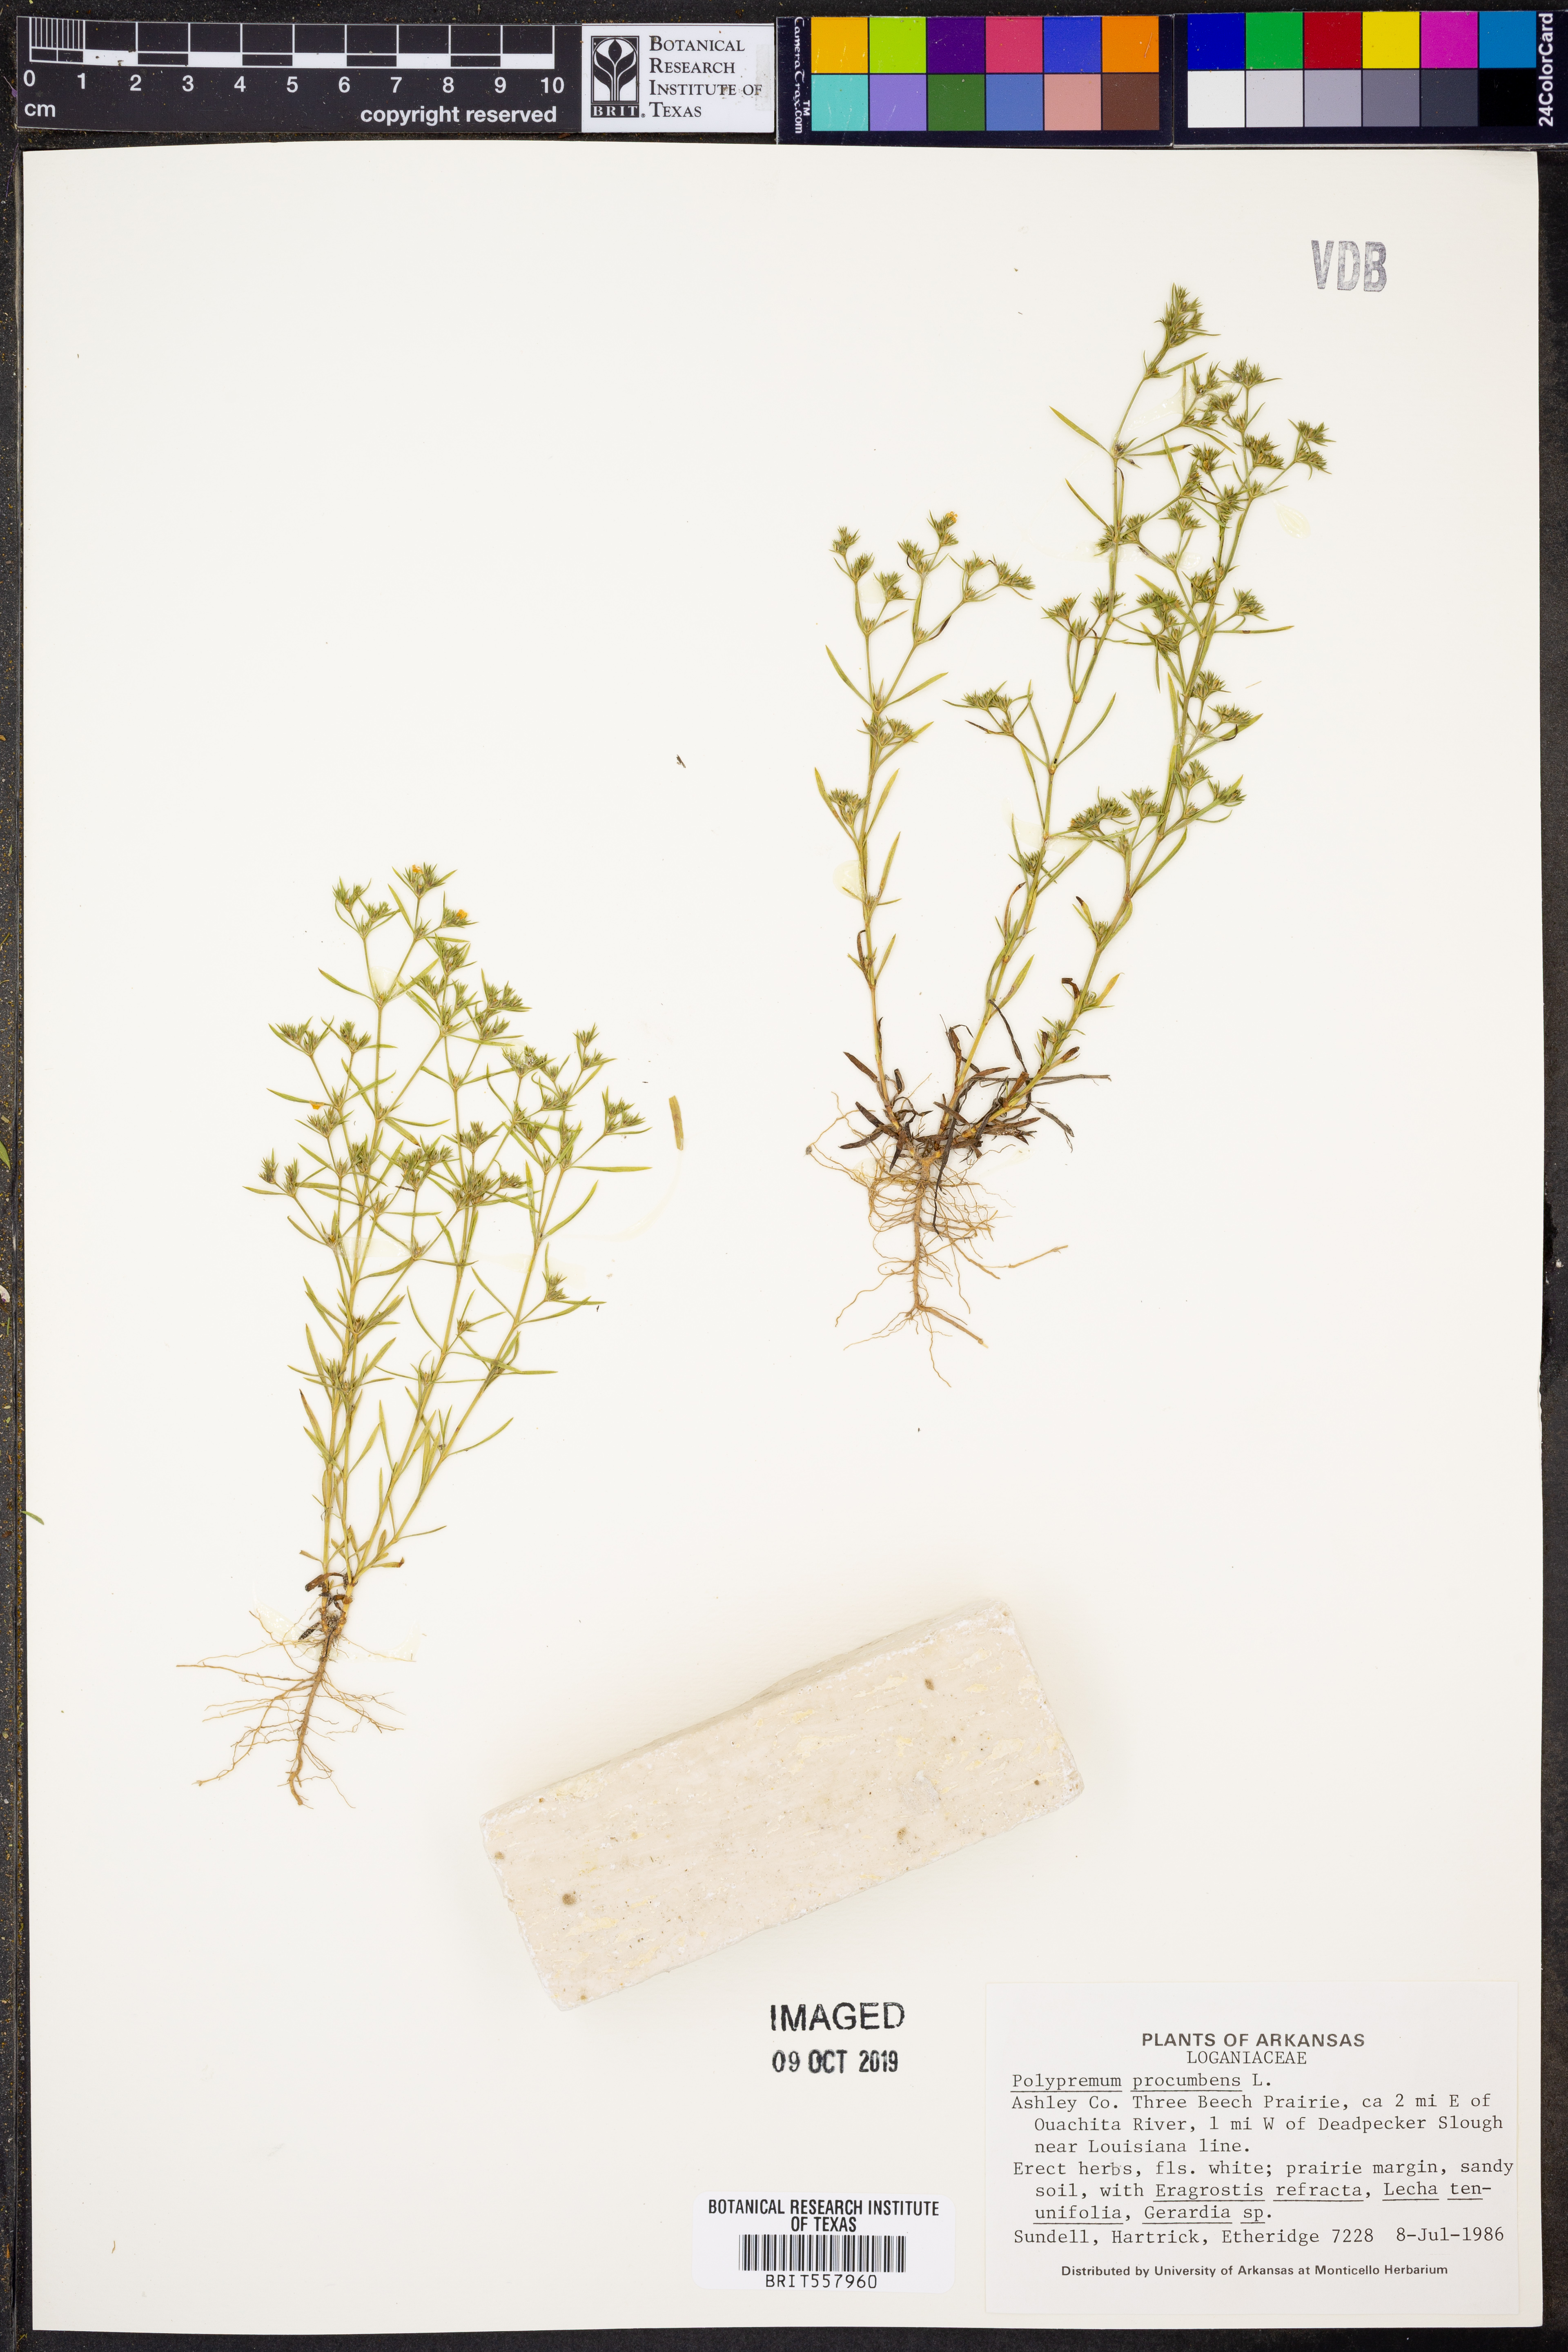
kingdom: Plantae
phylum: Tracheophyta
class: Magnoliopsida
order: Lamiales
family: Tetrachondraceae
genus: Polypremum
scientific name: Polypremum procumbens
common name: Juniper-leaf
